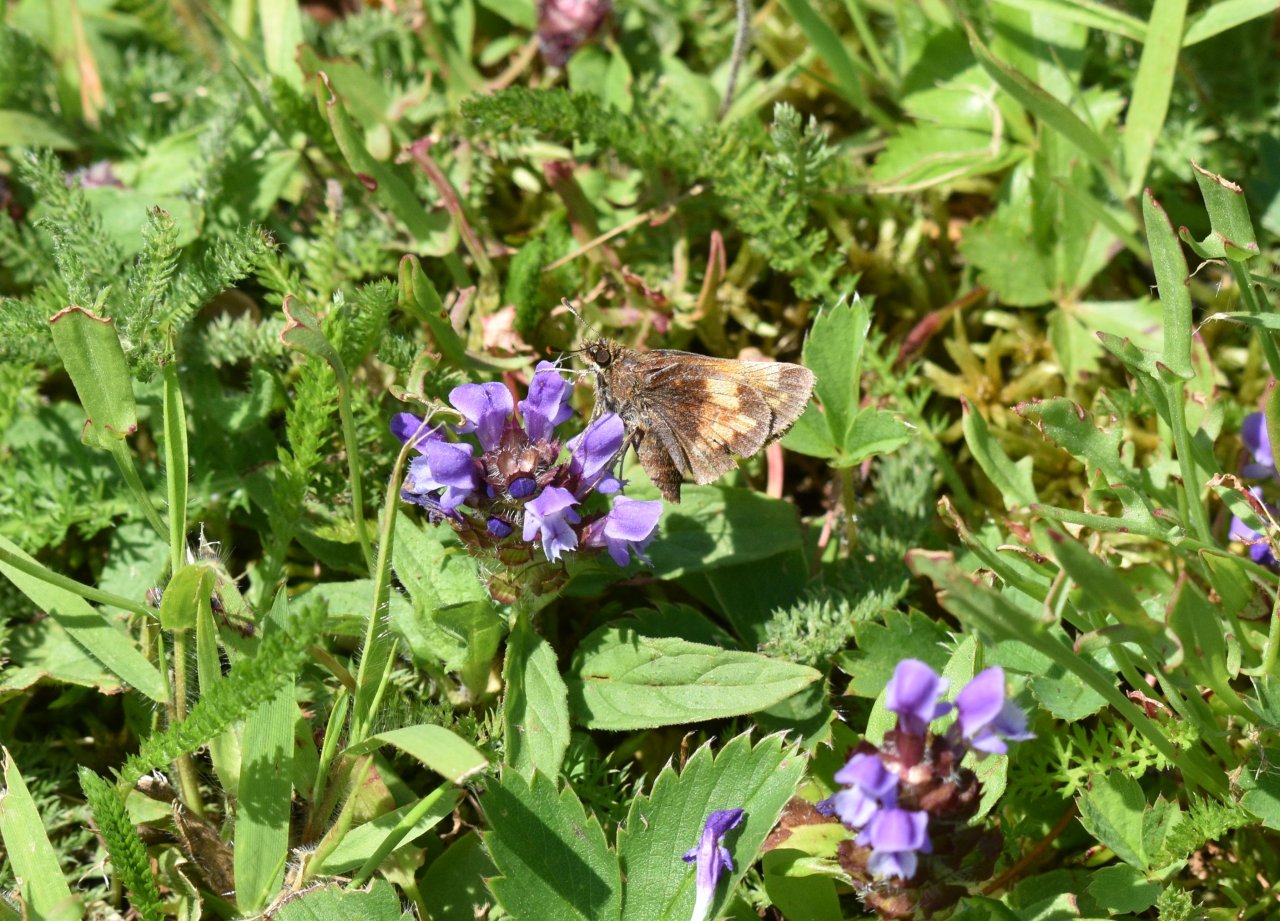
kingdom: Animalia
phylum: Arthropoda
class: Insecta
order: Lepidoptera
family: Hesperiidae
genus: Lon
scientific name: Lon hobomok
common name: Hobomok Skipper
